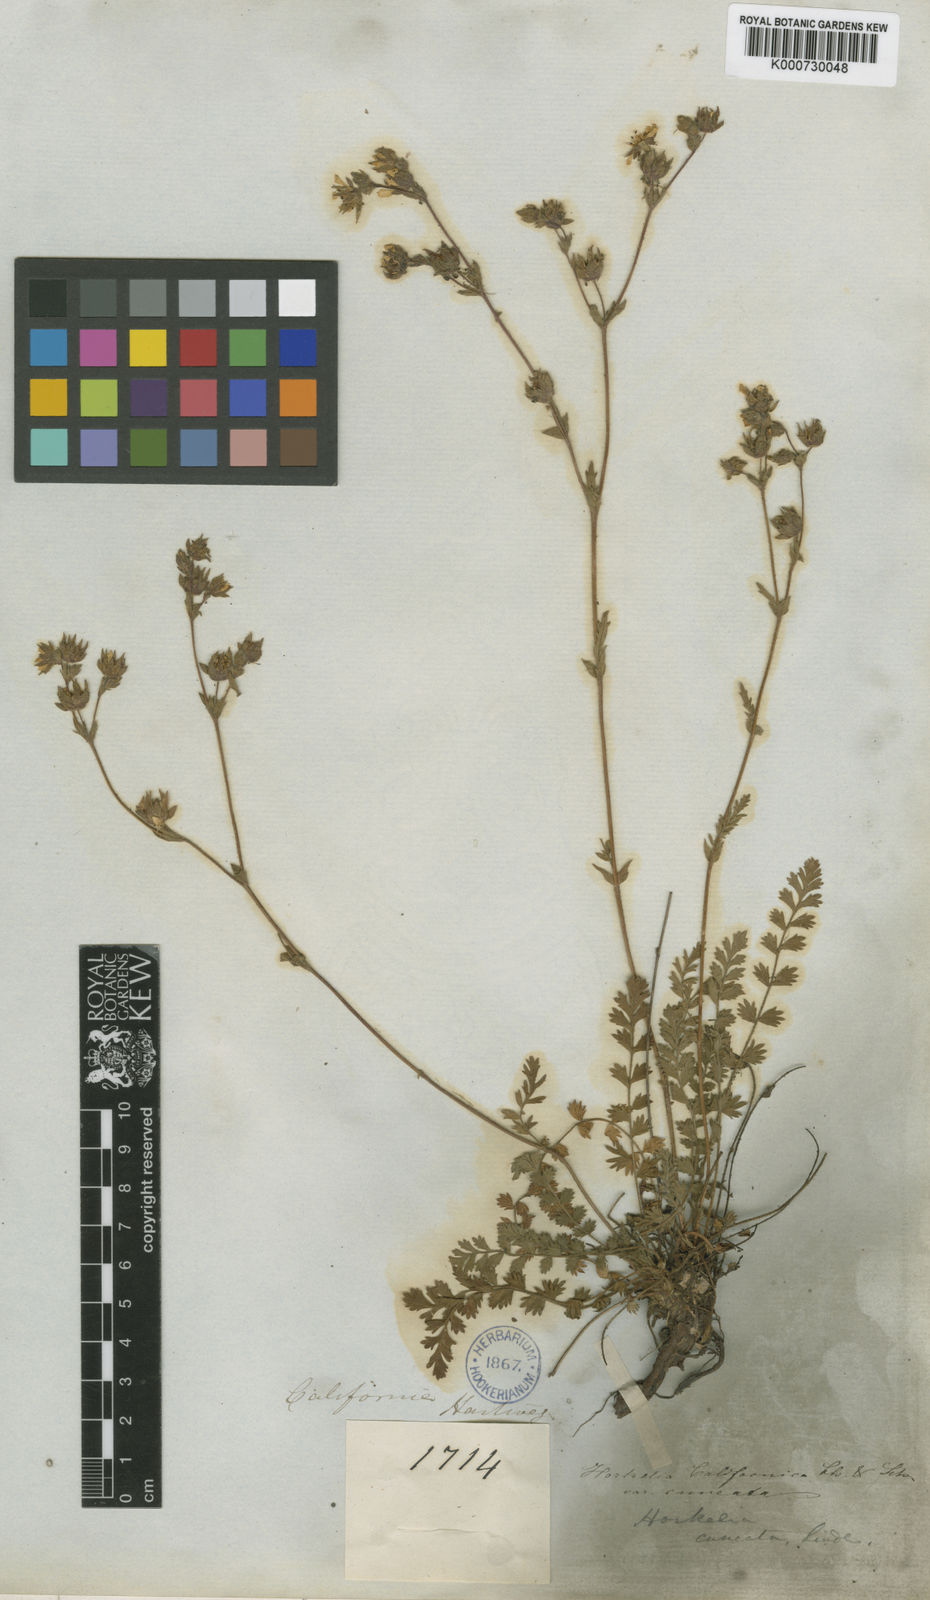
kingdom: Plantae
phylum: Tracheophyta
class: Magnoliopsida
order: Rosales
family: Rosaceae
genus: Potentilla
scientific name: Potentilla lindleyi
